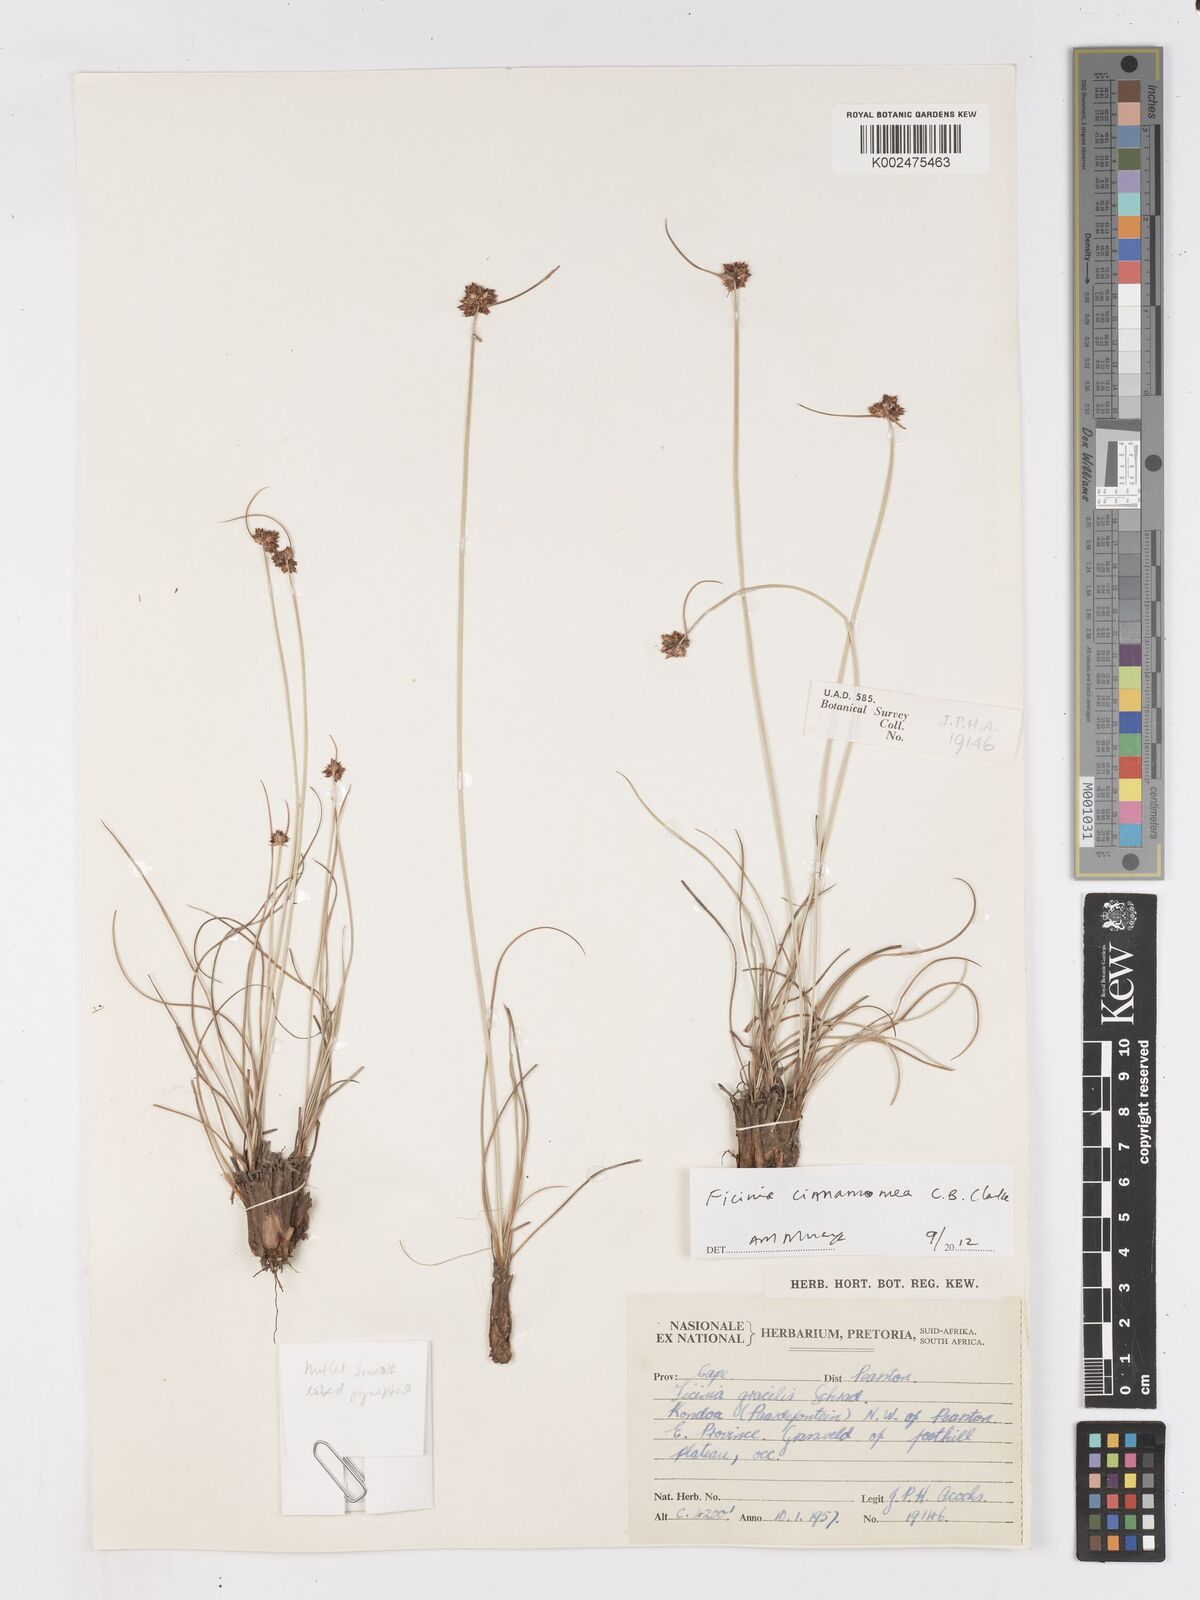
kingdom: Plantae
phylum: Tracheophyta
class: Liliopsida
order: Poales
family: Cyperaceae
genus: Ficinia
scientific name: Ficinia cinnamomea
